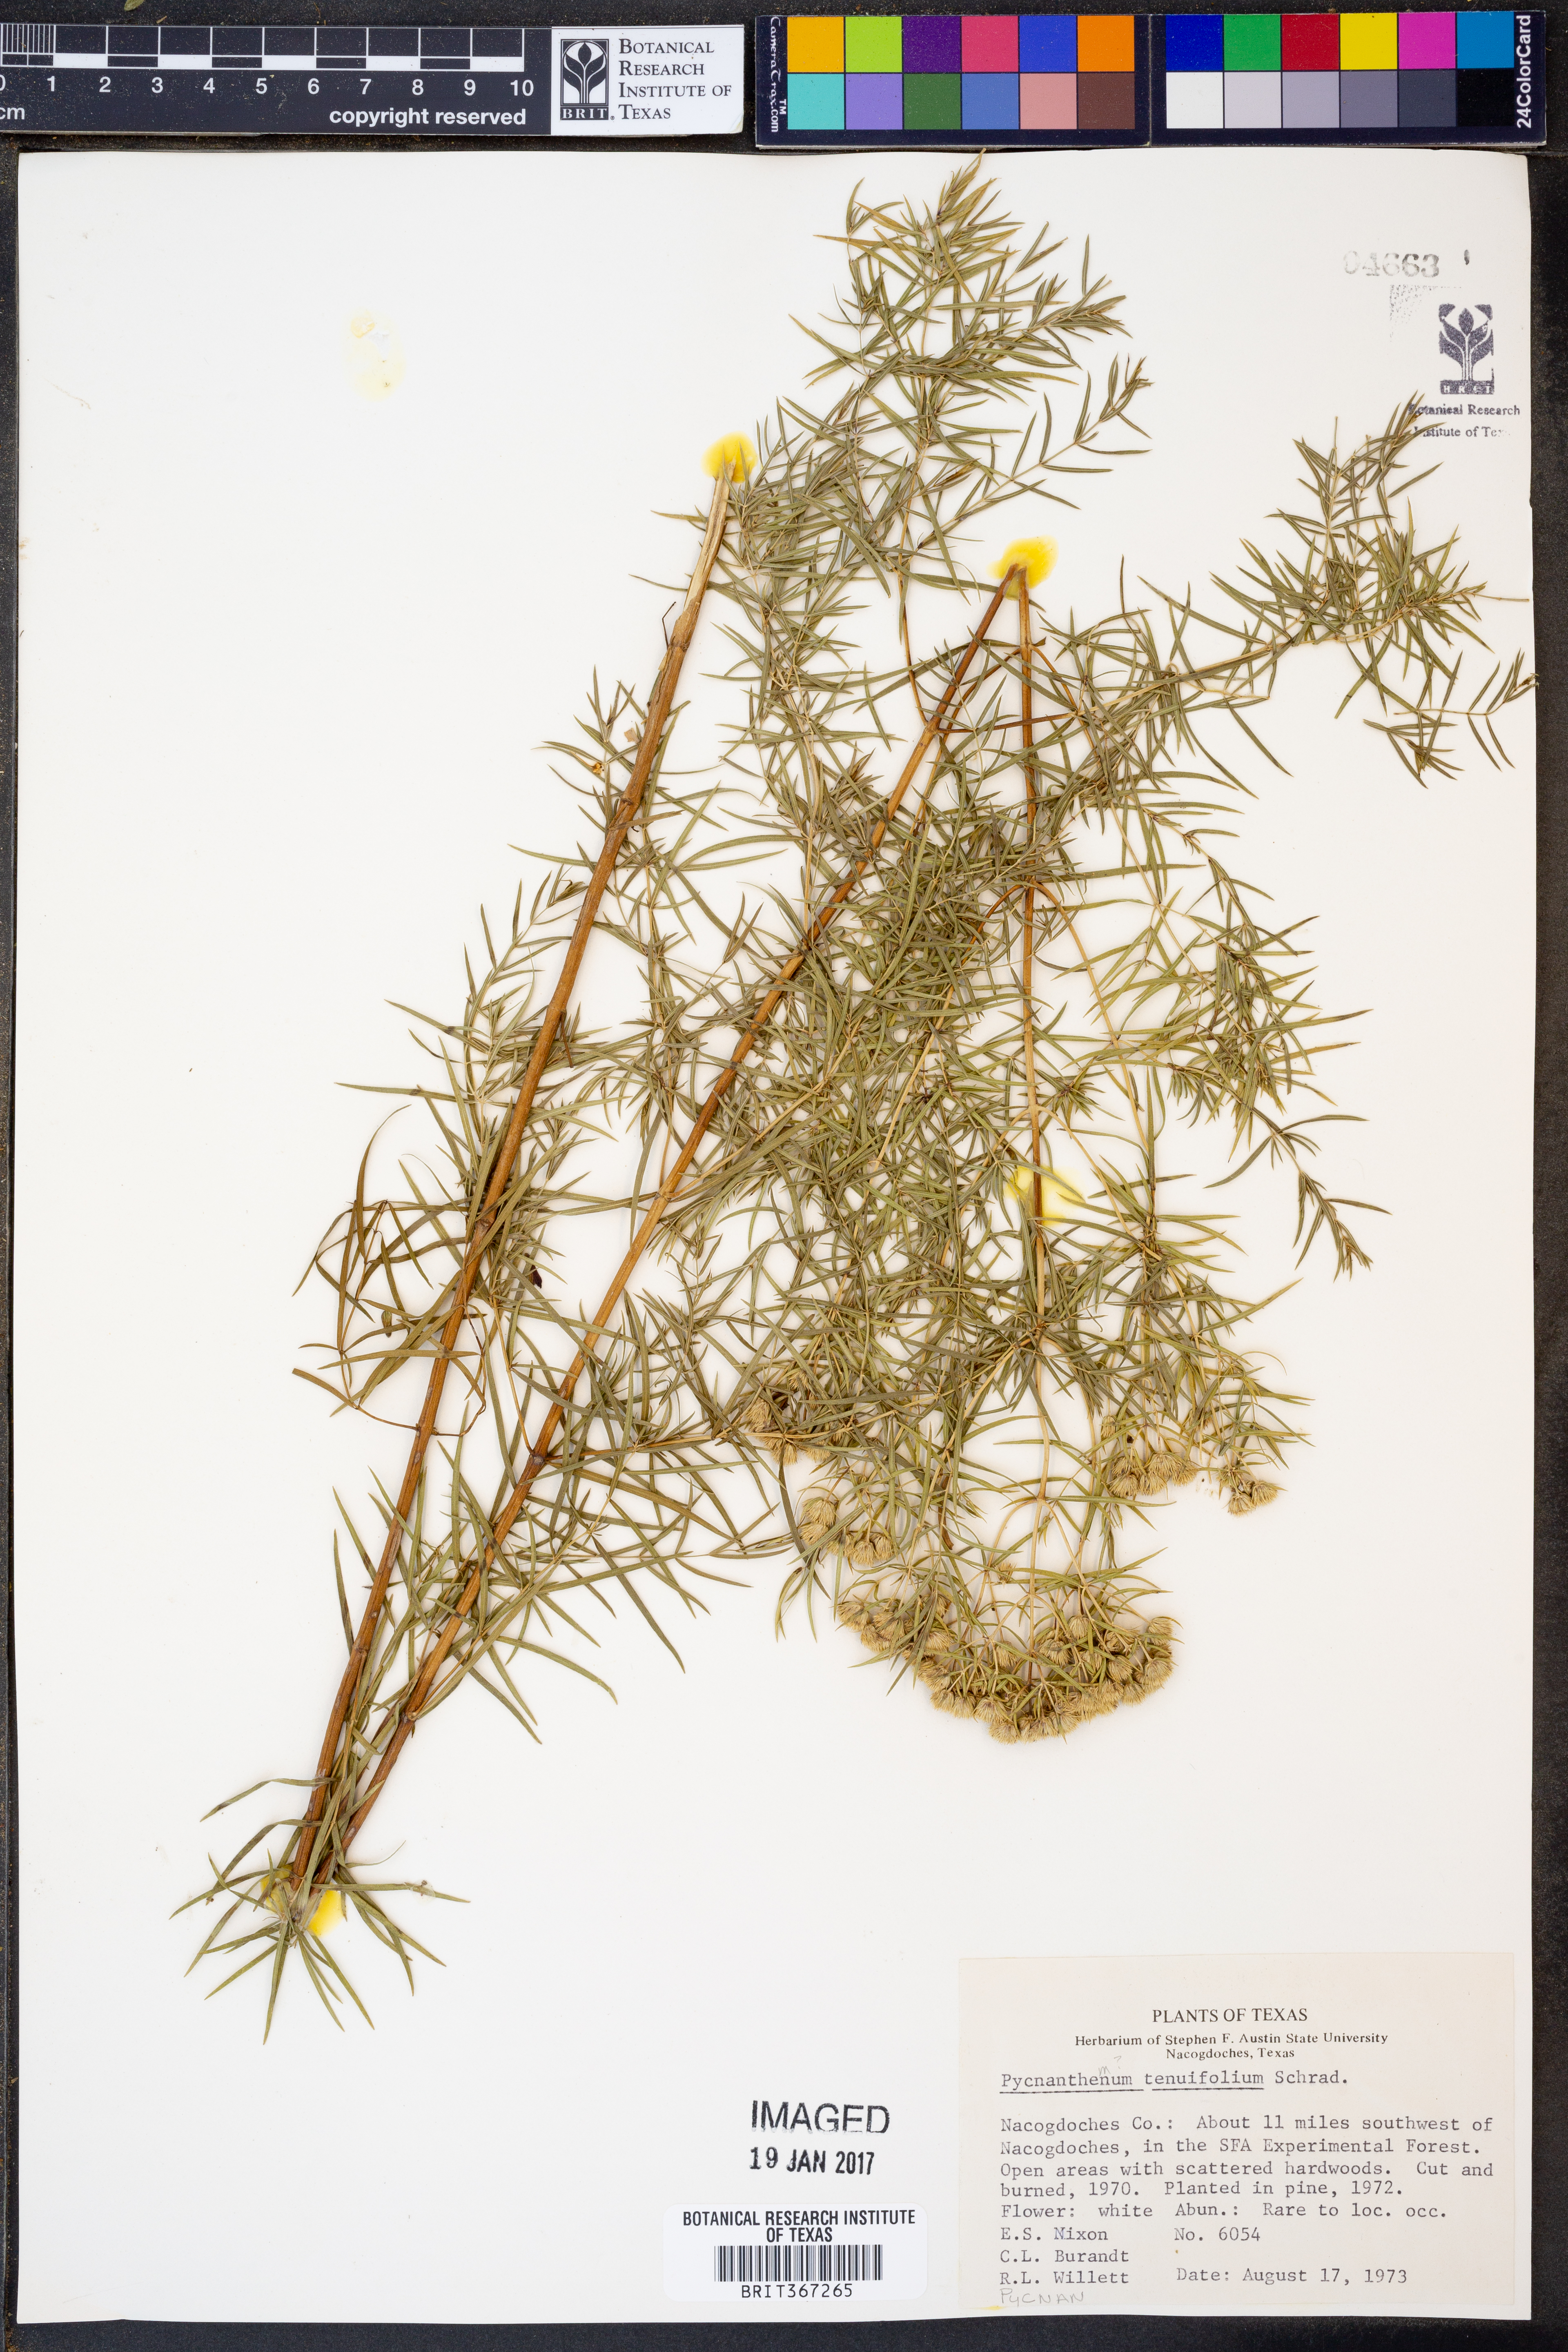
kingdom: Plantae
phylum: Tracheophyta
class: Magnoliopsida
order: Lamiales
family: Lamiaceae
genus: Pycnanthemum
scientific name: Pycnanthemum tenuifolium
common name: Narrow-leaf mountain-mint
